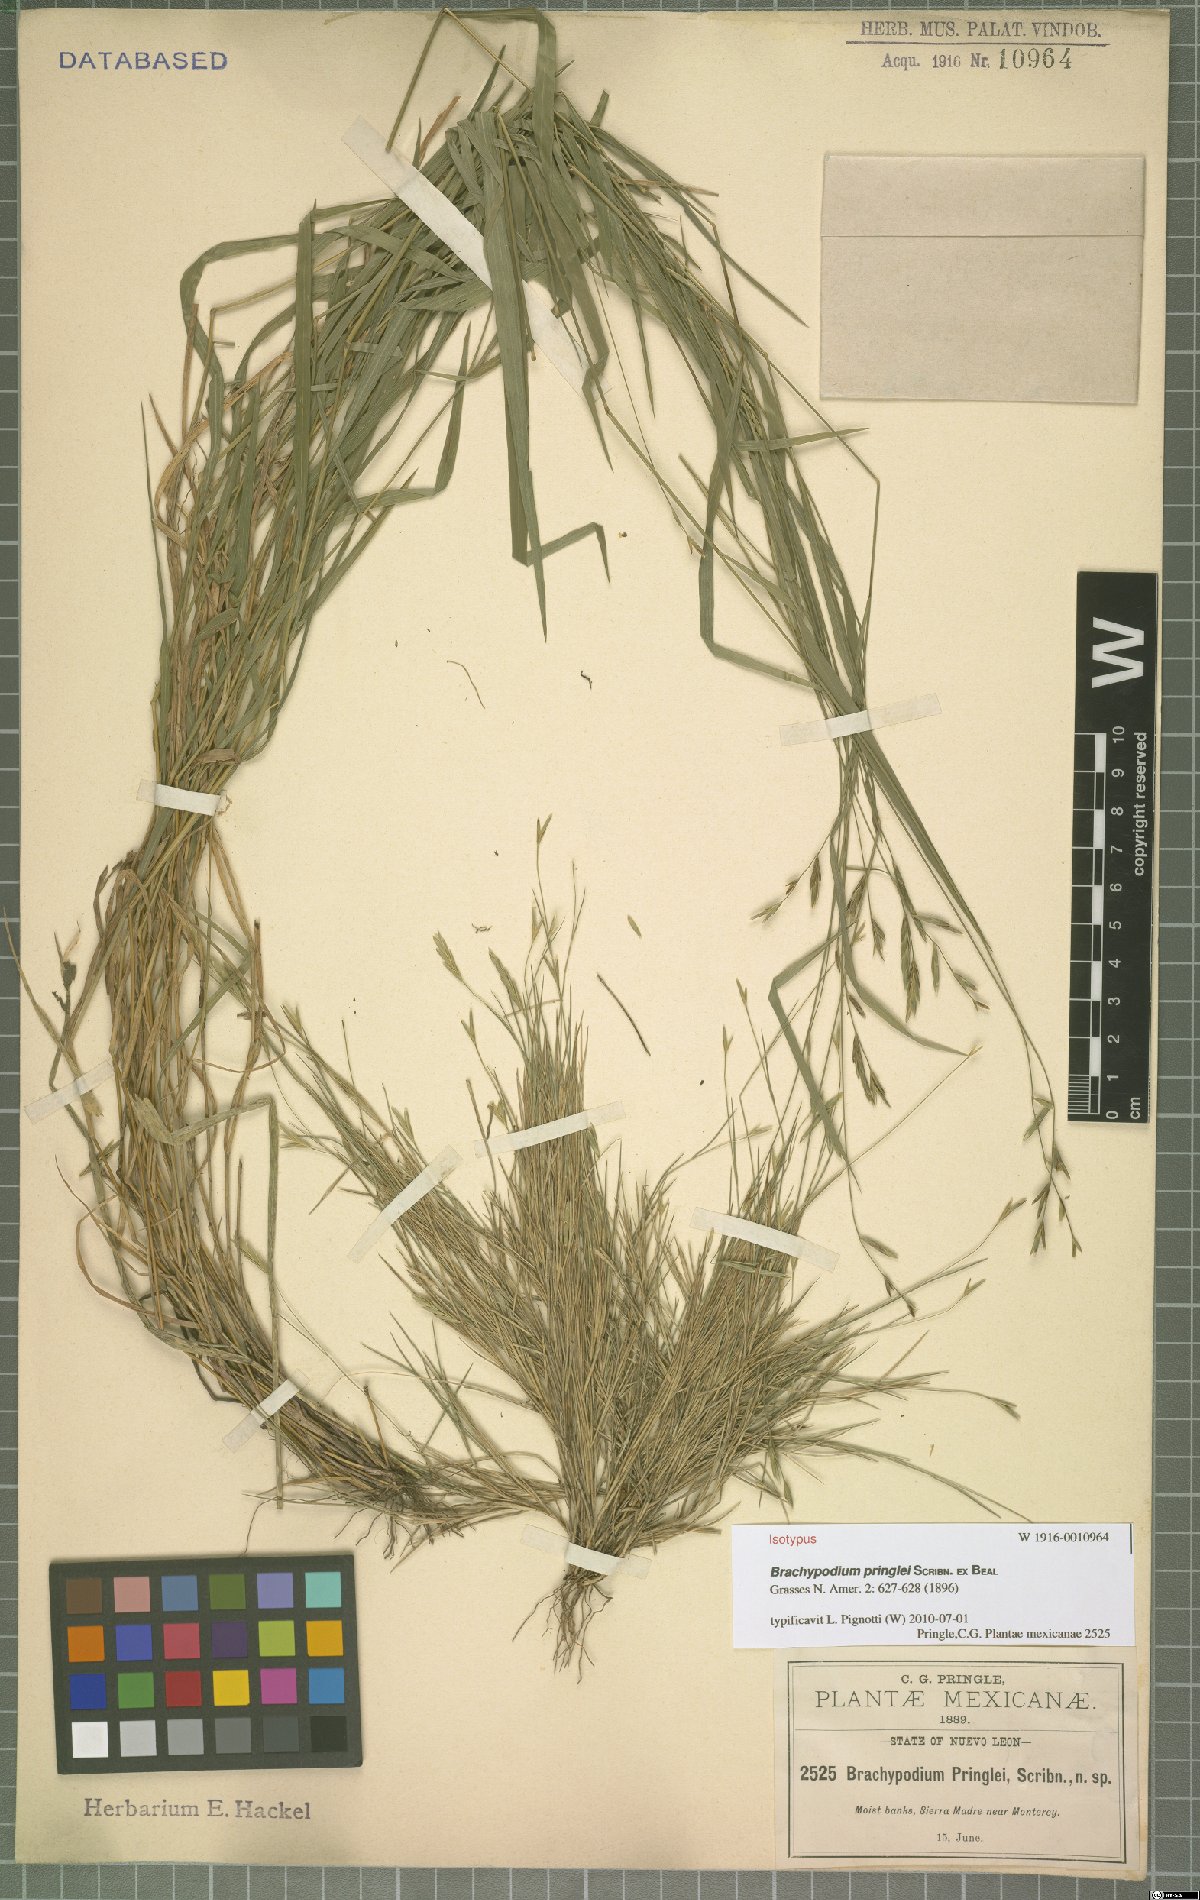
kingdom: Plantae
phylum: Tracheophyta
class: Liliopsida
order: Poales
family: Poaceae
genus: Brachypodium
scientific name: Brachypodium pringlei
